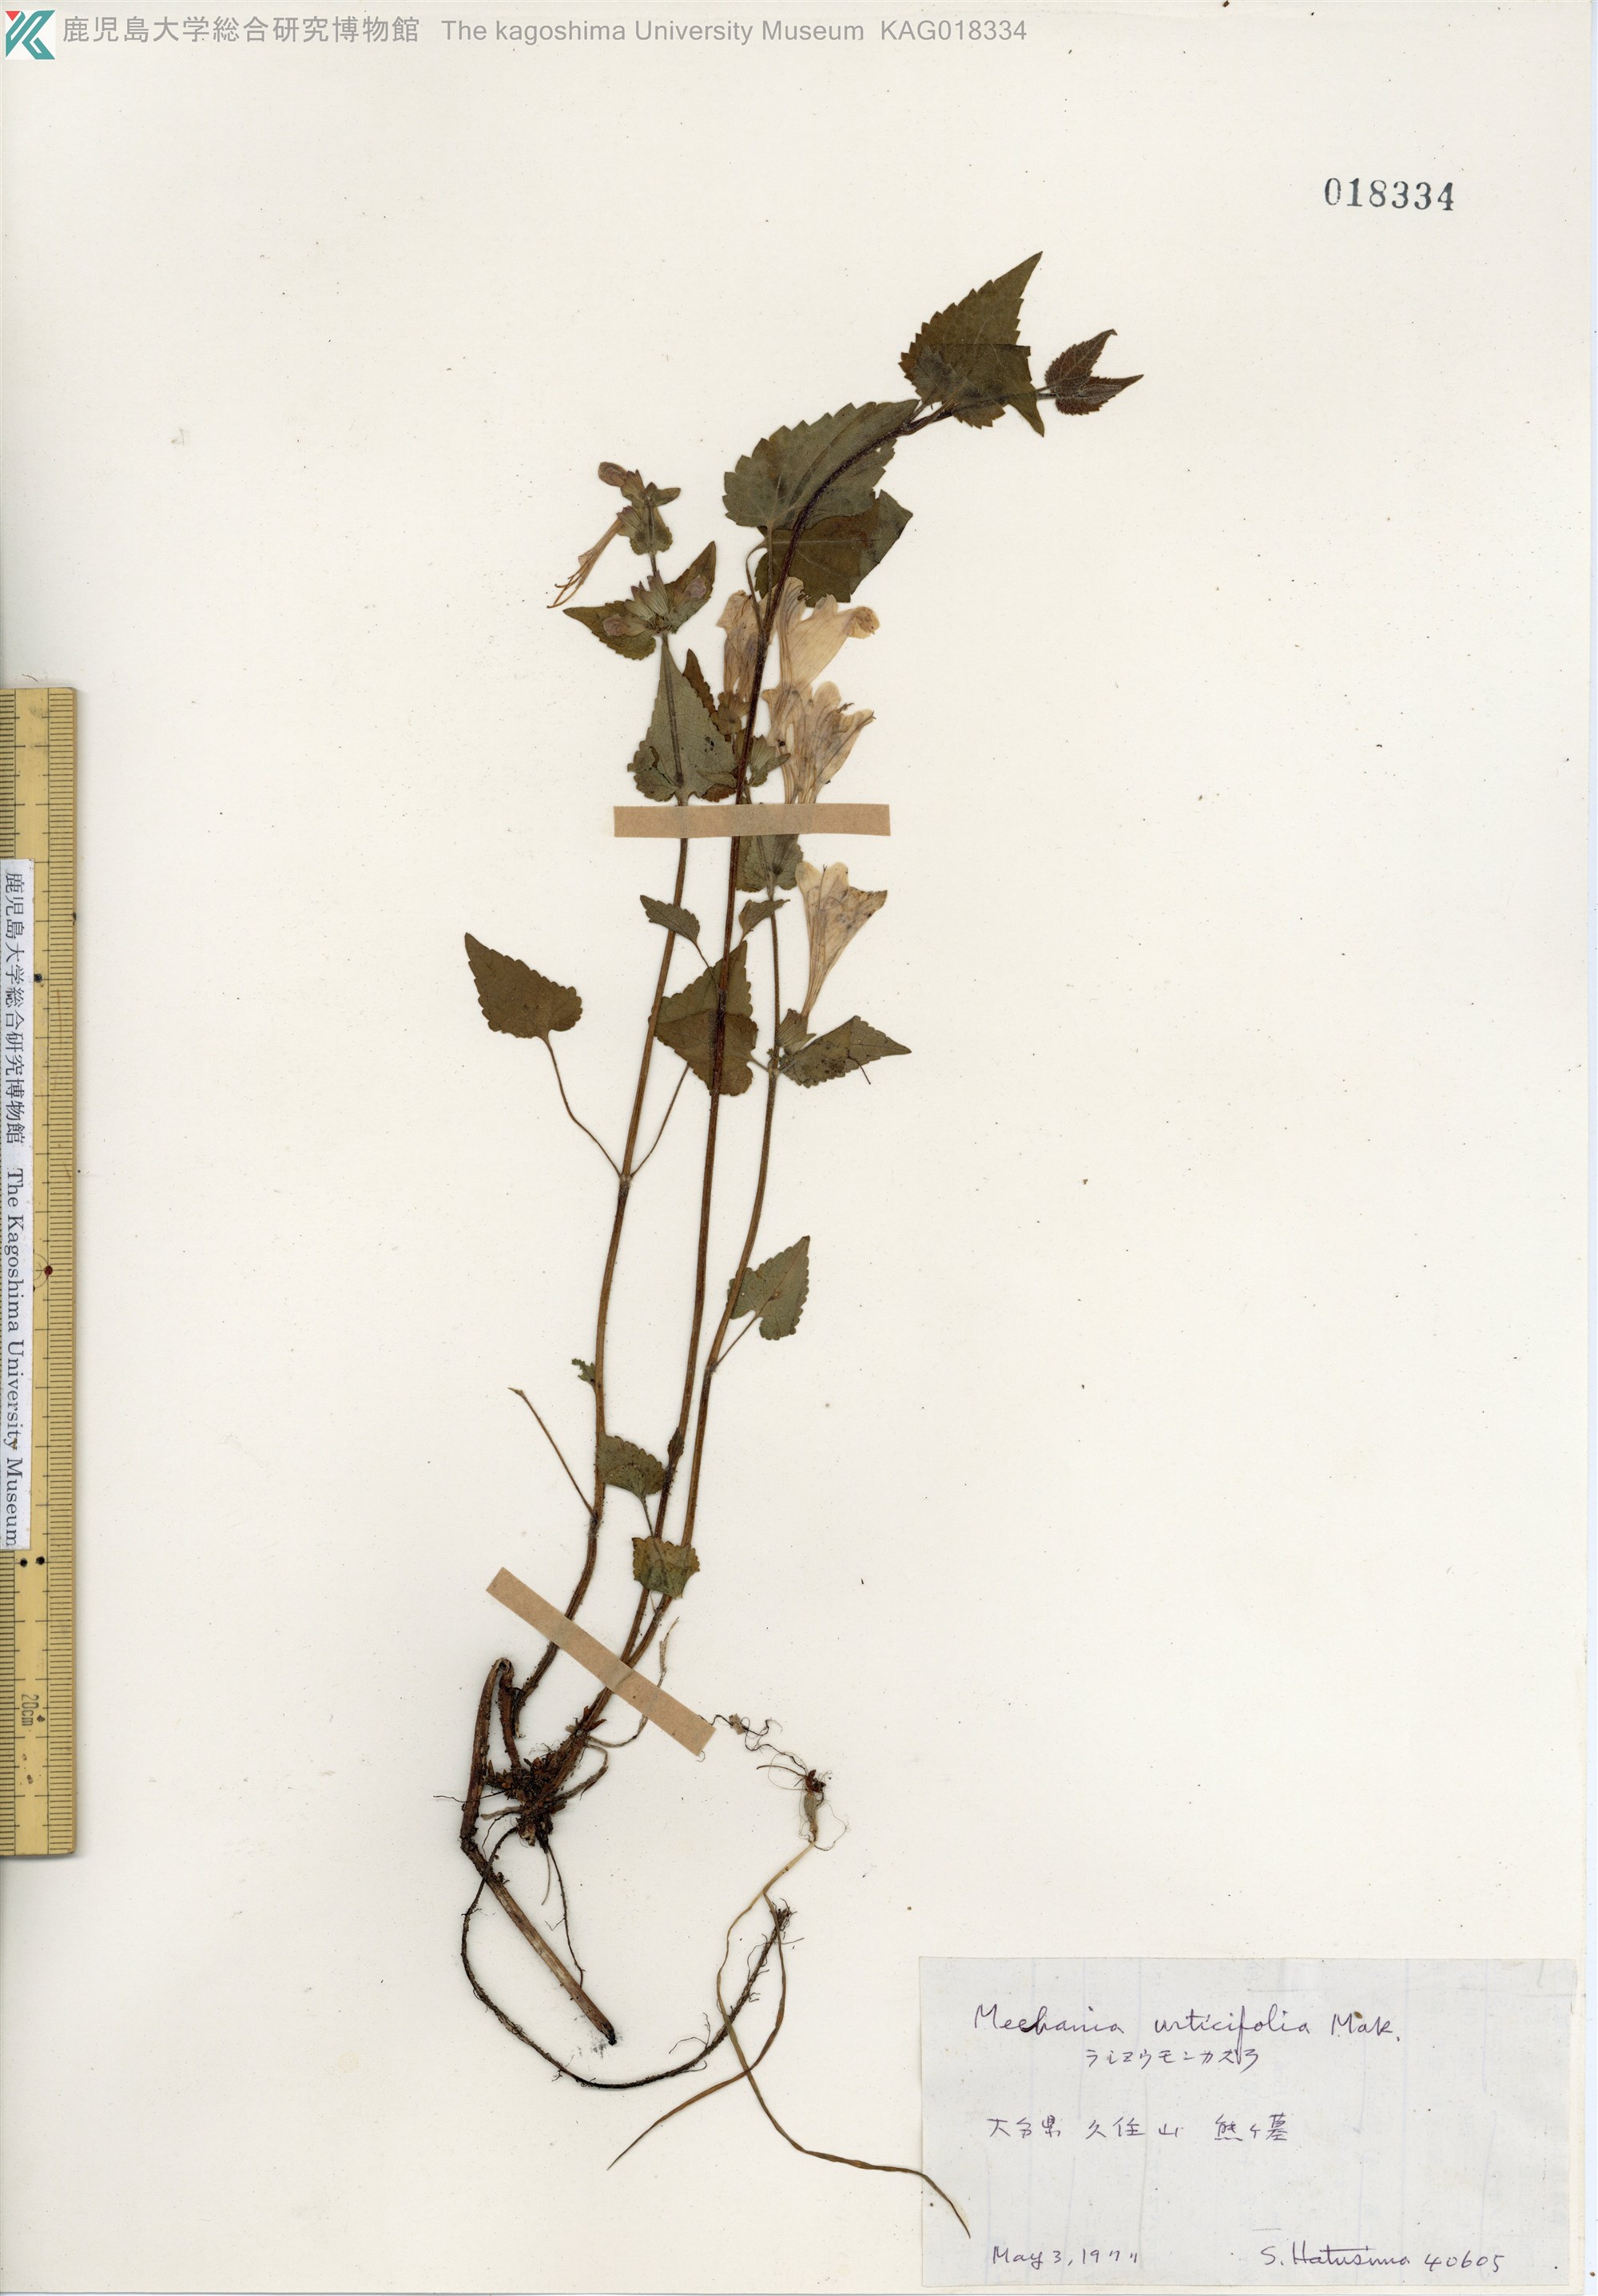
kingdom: Plantae
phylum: Tracheophyta
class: Magnoliopsida
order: Lamiales
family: Lamiaceae
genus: Meehania
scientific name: Meehania urticifolia
